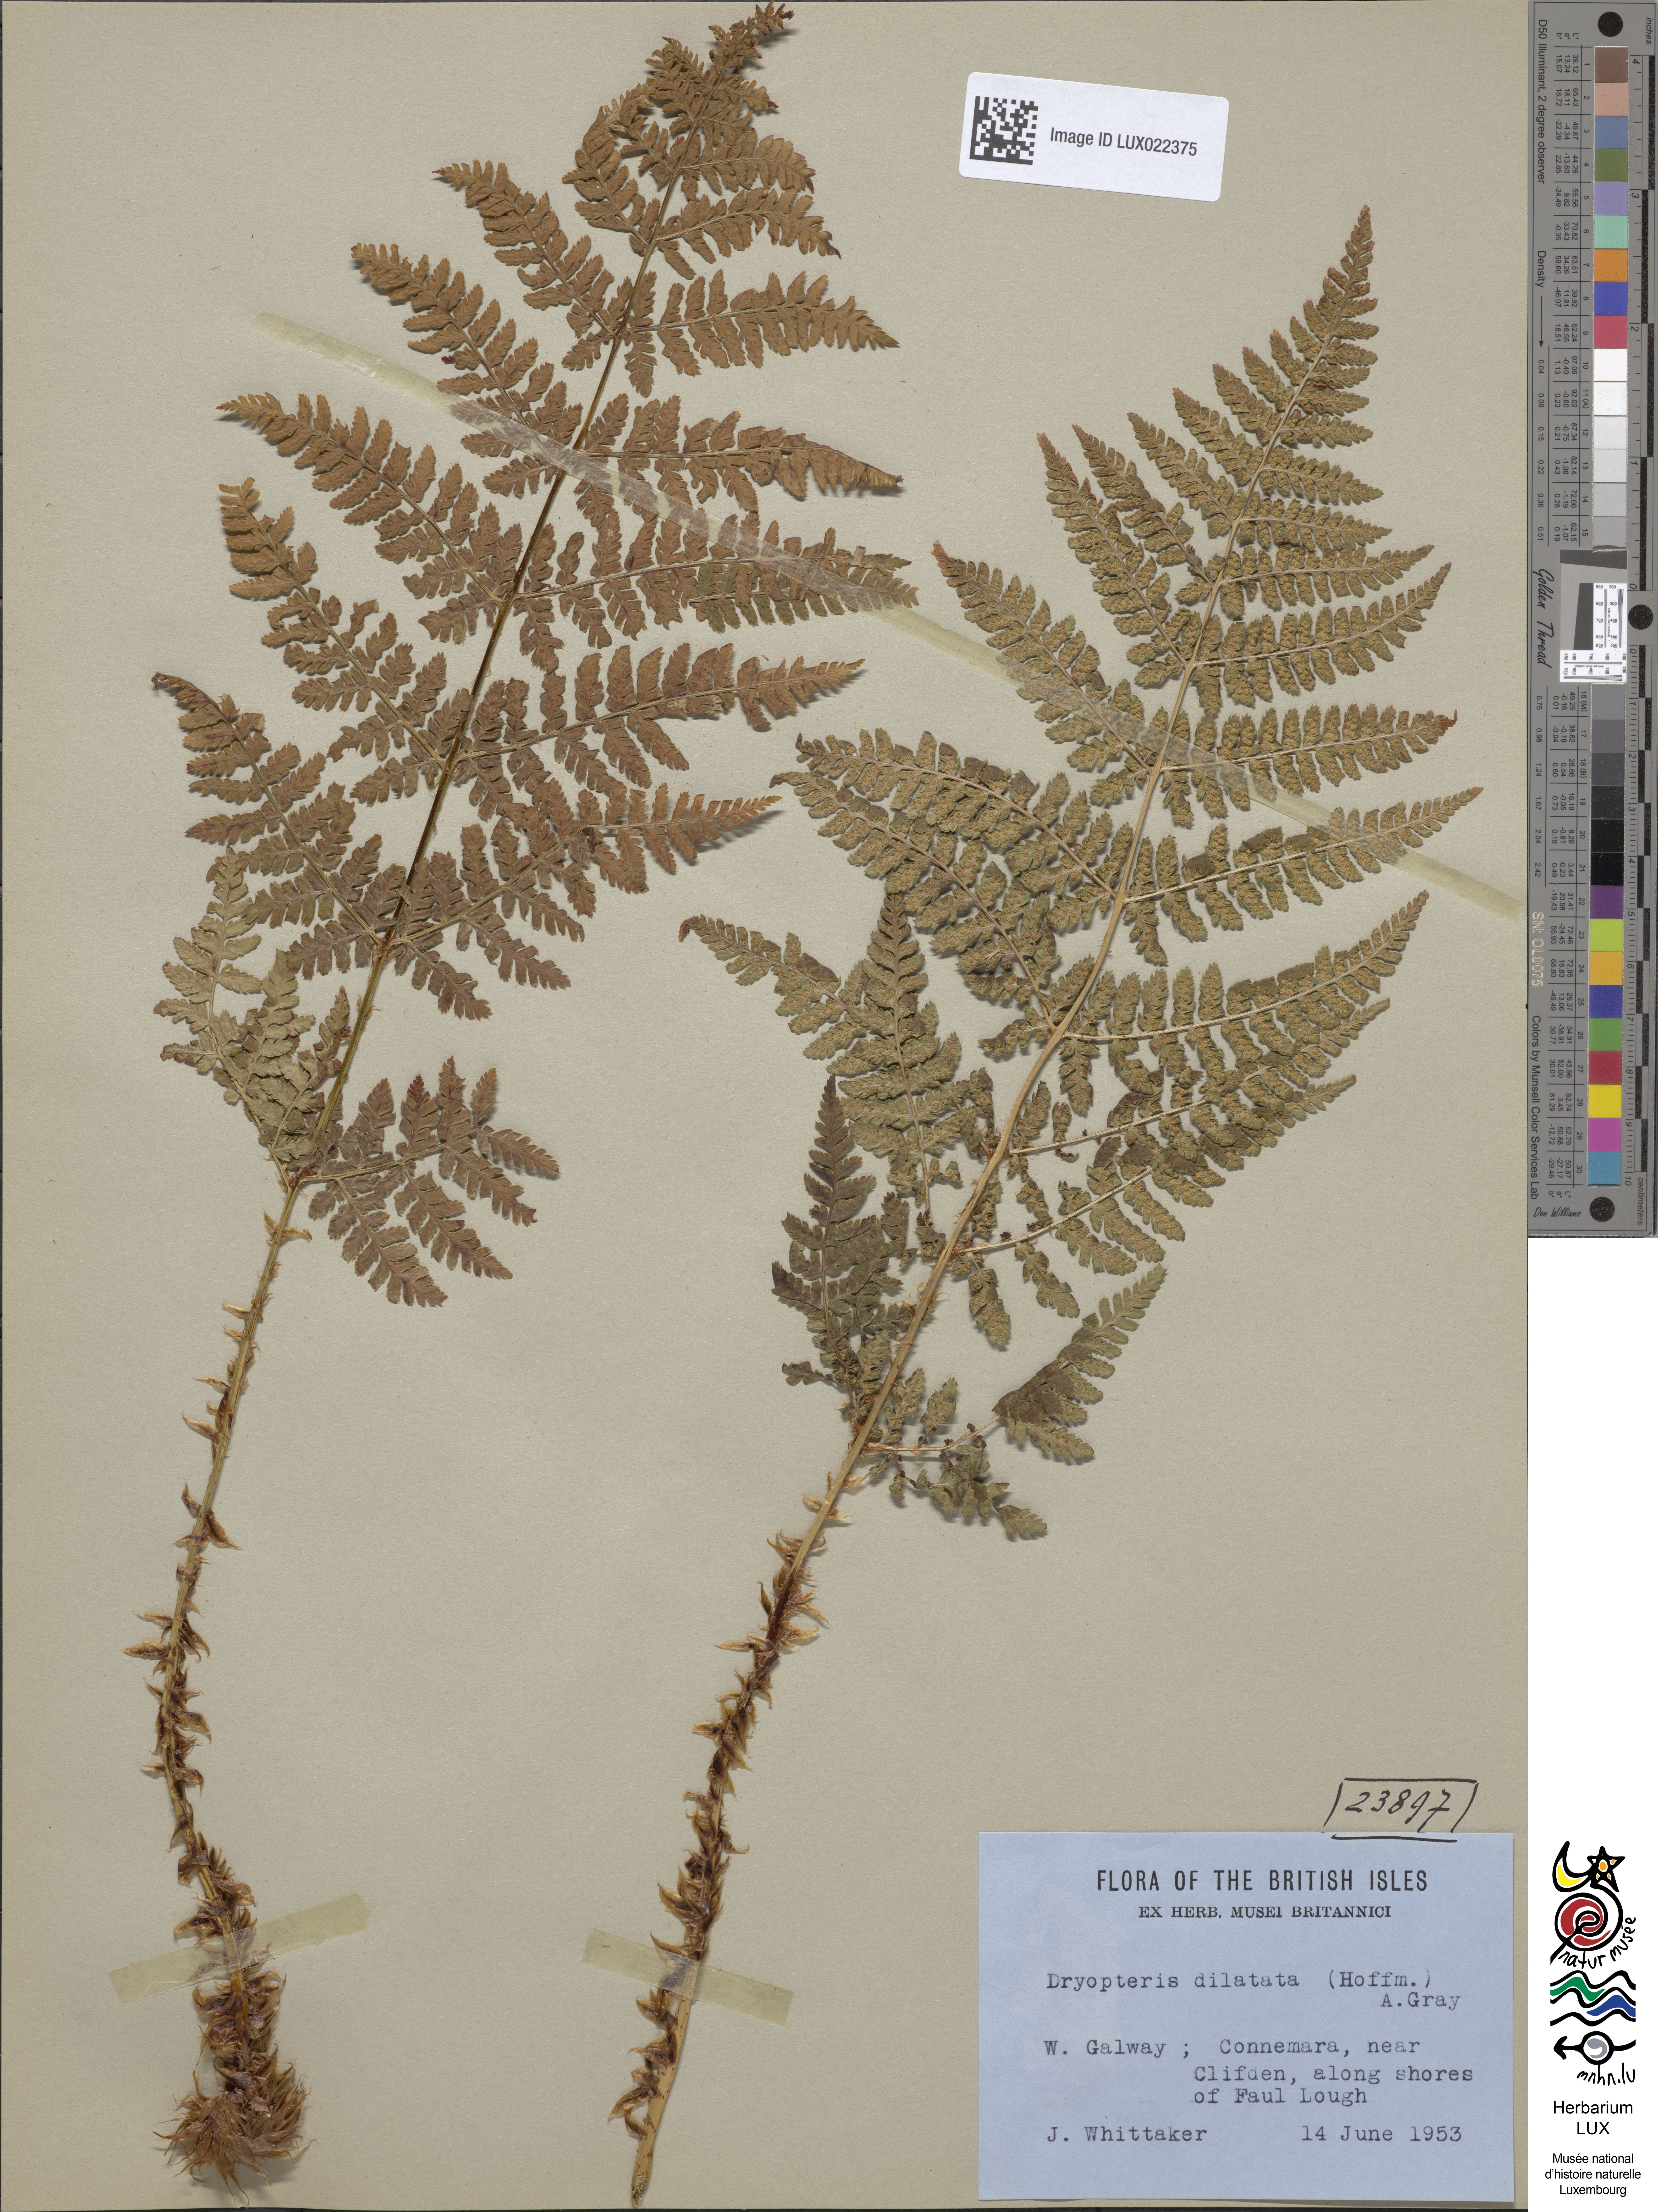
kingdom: Plantae
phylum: Tracheophyta
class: Polypodiopsida
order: Polypodiales
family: Dryopteridaceae
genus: Dryopteris
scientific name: Dryopteris dilatata
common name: Broad buckler-fern
